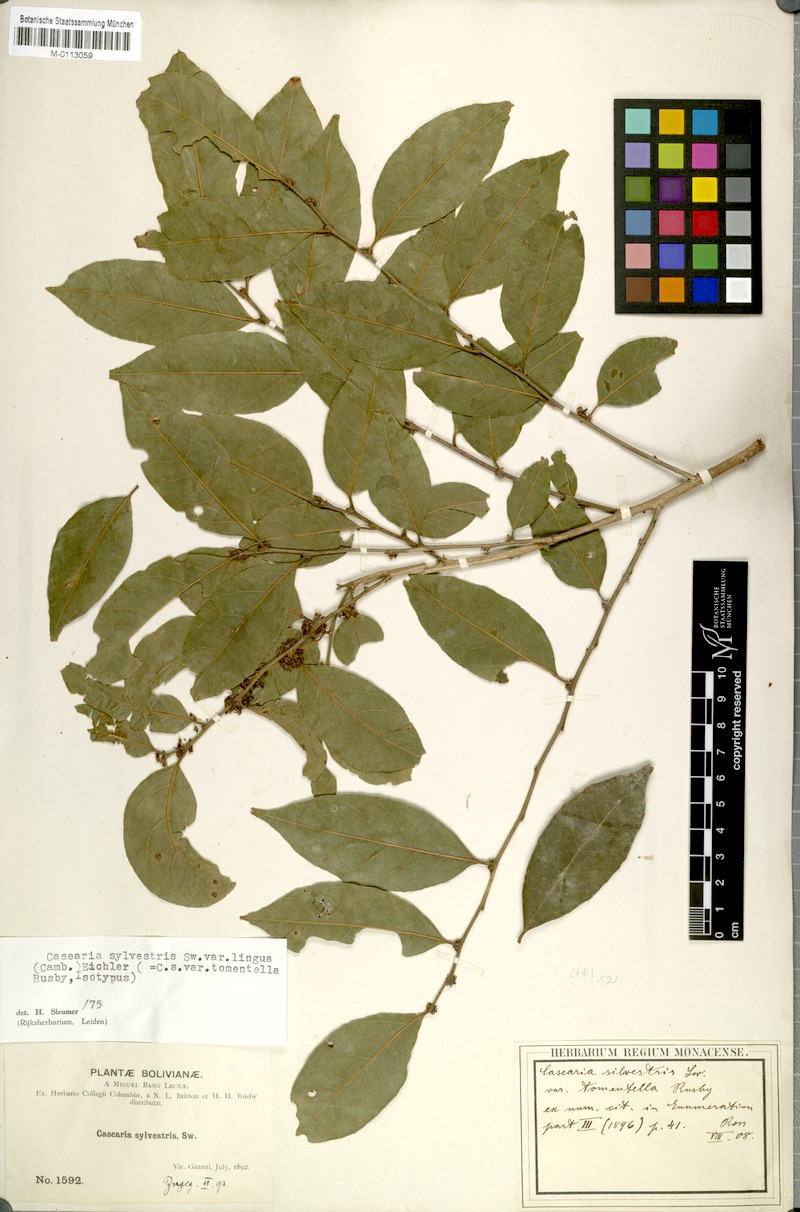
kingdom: Plantae
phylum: Tracheophyta
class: Magnoliopsida
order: Malpighiales
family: Salicaceae
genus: Casearia
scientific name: Casearia sylvestris
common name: Wild sage
